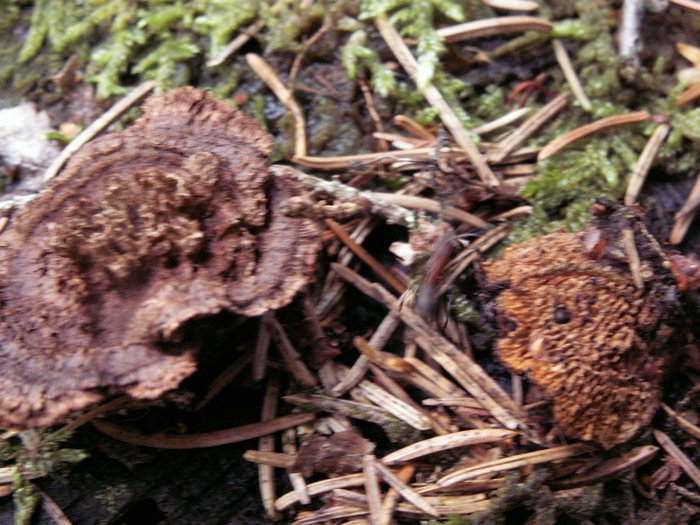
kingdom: Fungi
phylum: Basidiomycota
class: Agaricomycetes
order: Gloeophyllales
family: Gloeophyllaceae
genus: Gloeophyllum
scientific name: Gloeophyllum sepiarium
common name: fyrre-korkhat
